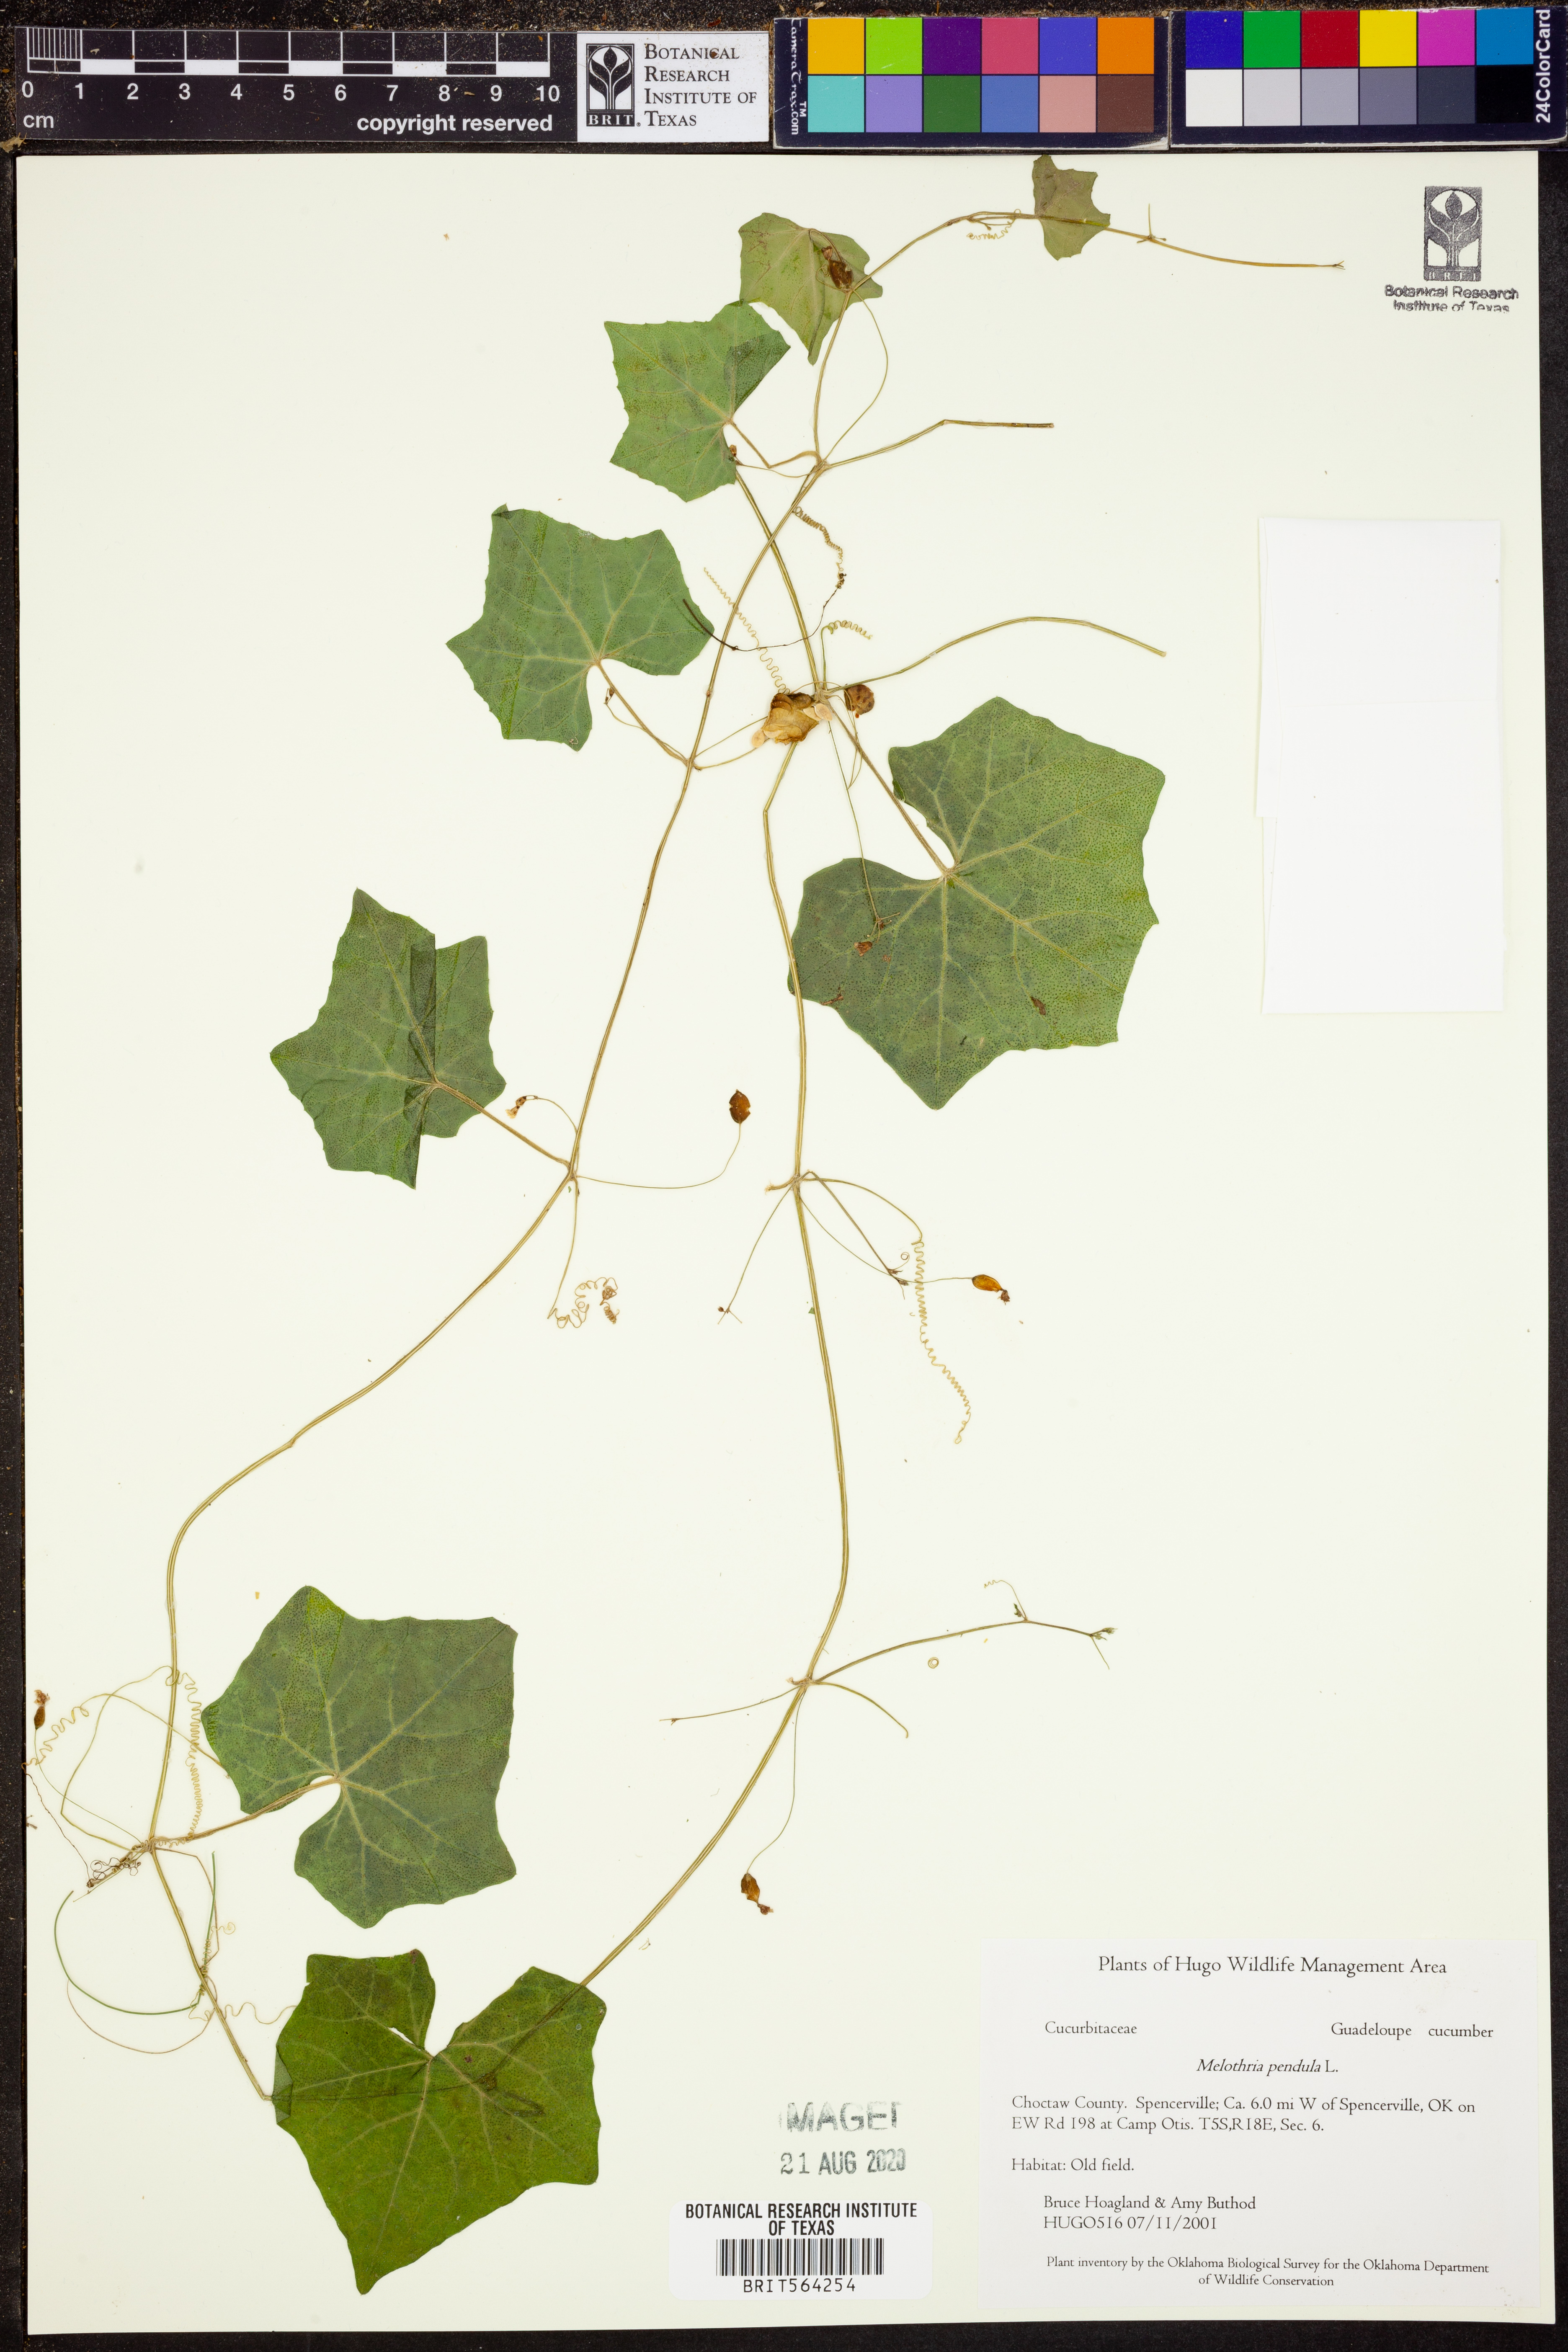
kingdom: Plantae
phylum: Tracheophyta
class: Magnoliopsida
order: Cucurbitales
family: Cucurbitaceae
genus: Melothria
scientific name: Melothria pendula
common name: Creeping-cucumber
